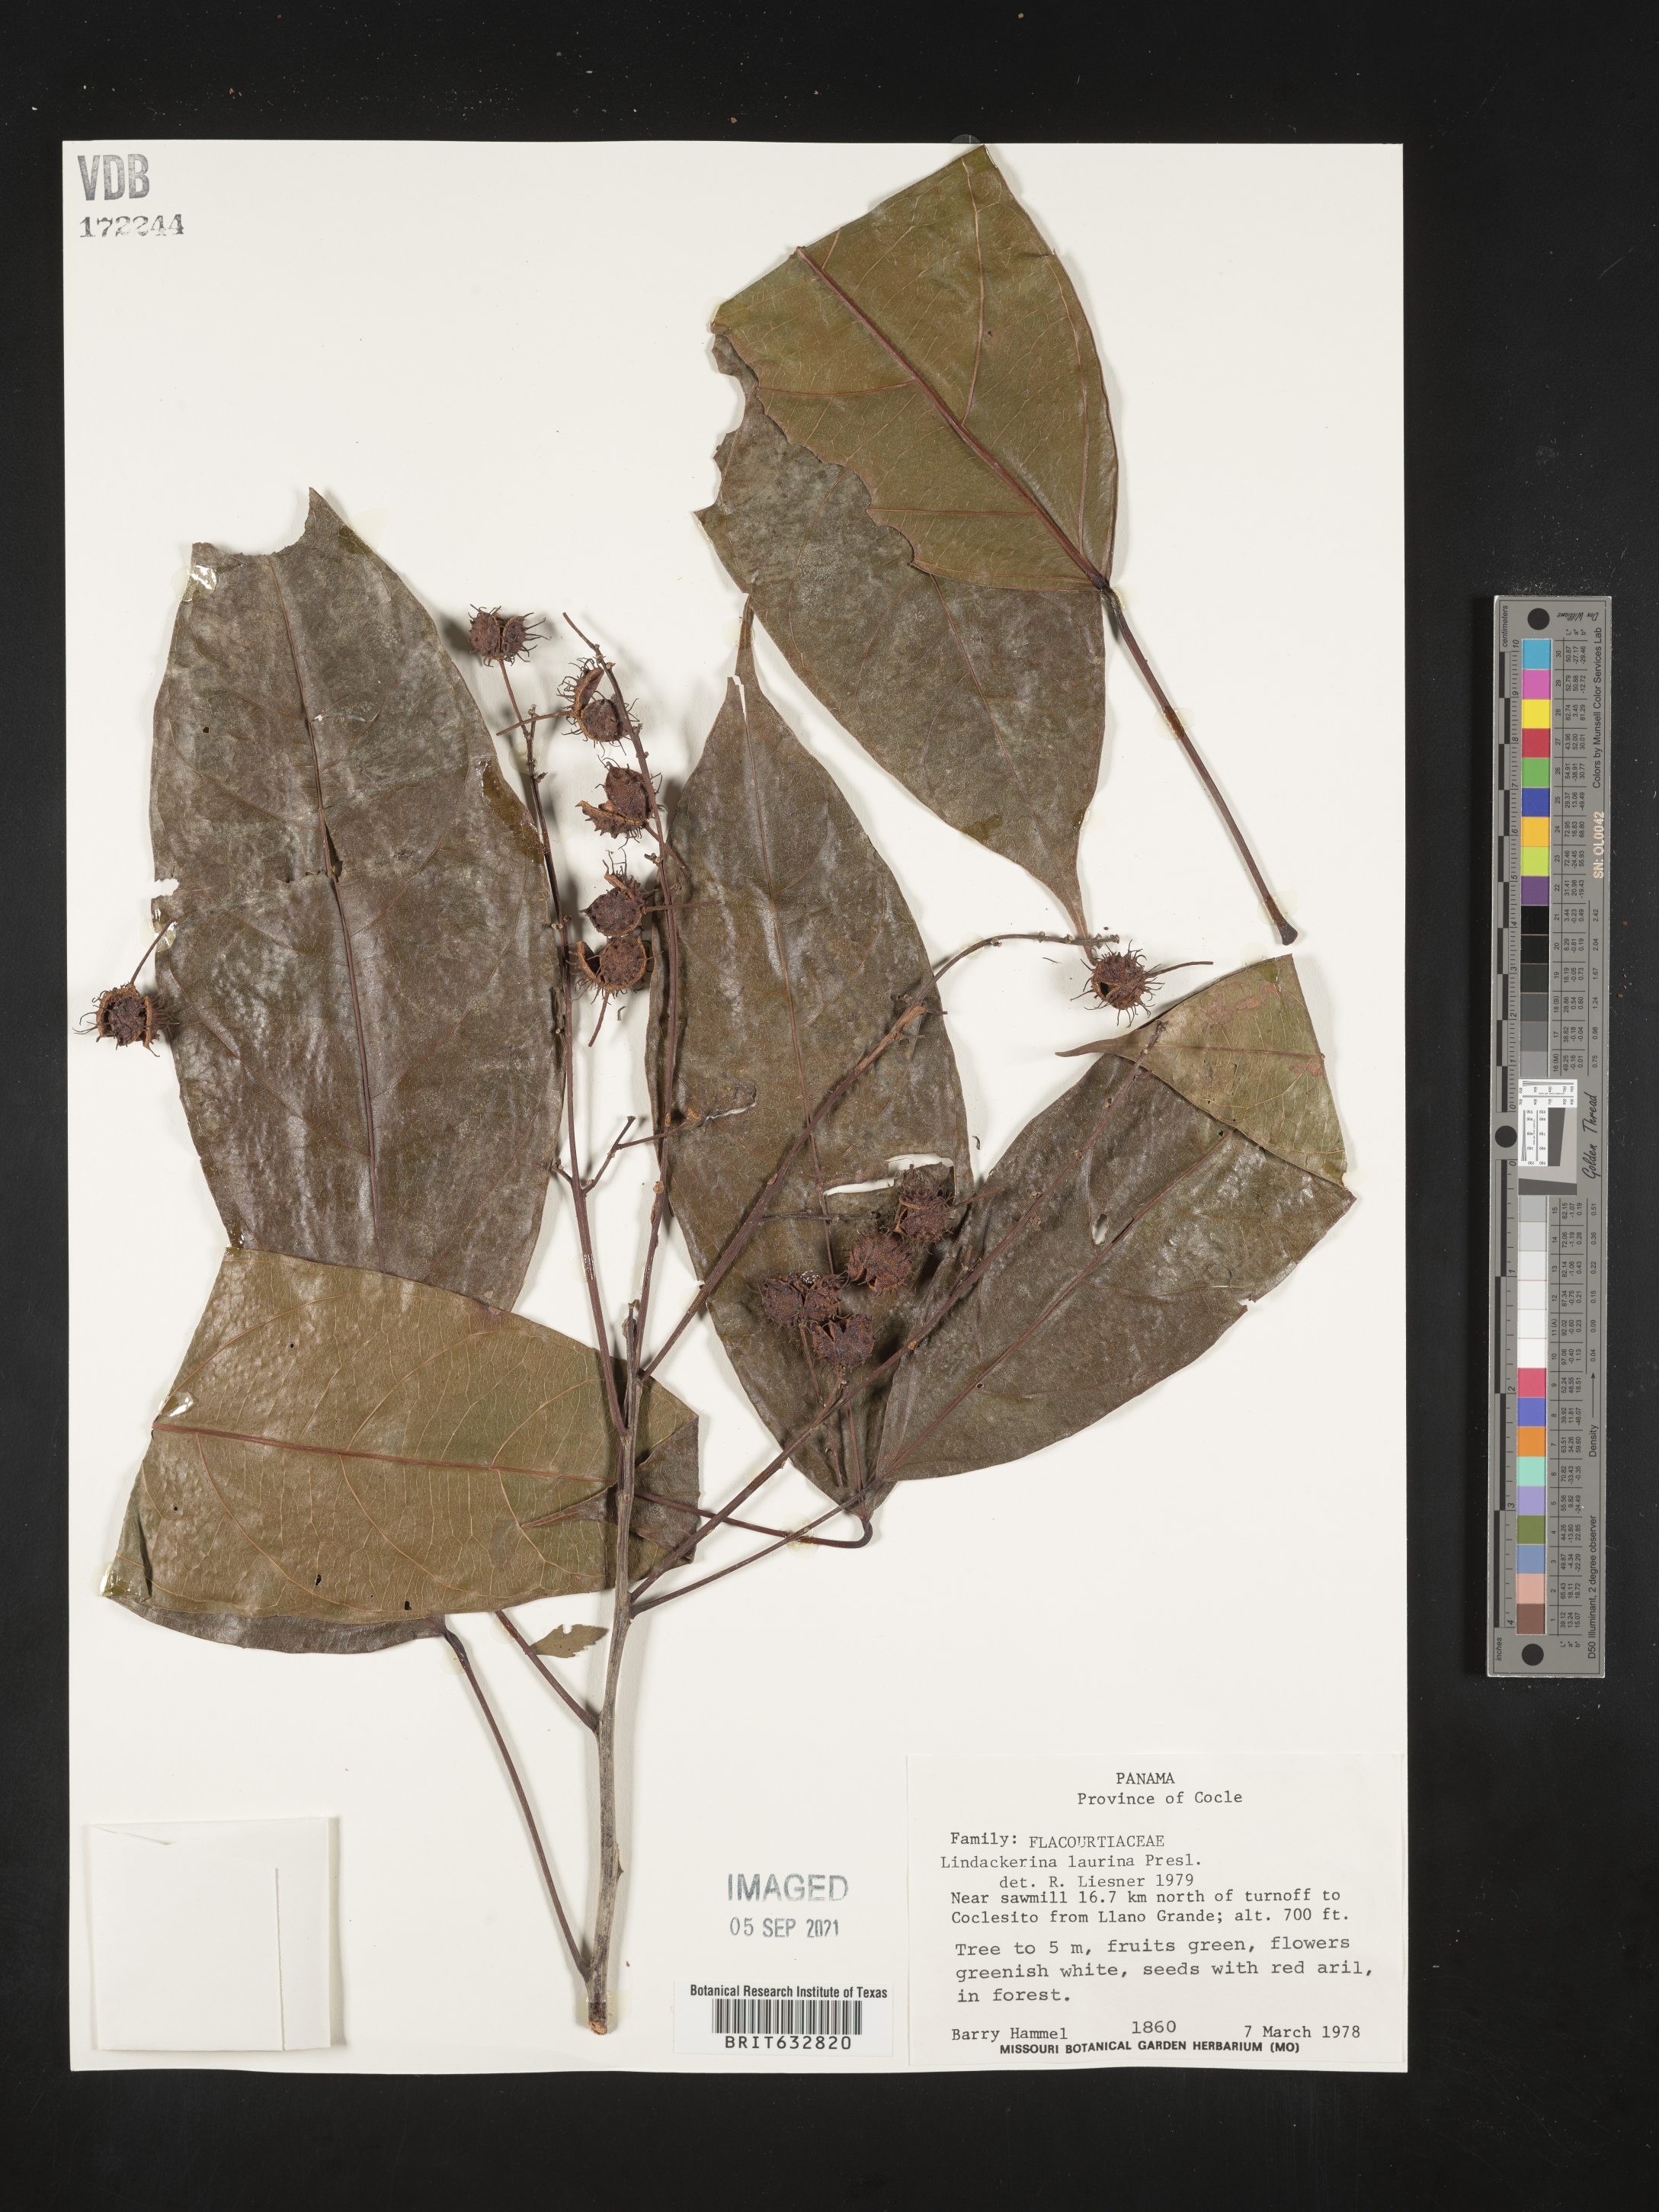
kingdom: Plantae
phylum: Tracheophyta
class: Magnoliopsida
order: Malpighiales
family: Achariaceae
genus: Lindackeria
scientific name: Lindackeria laurina
